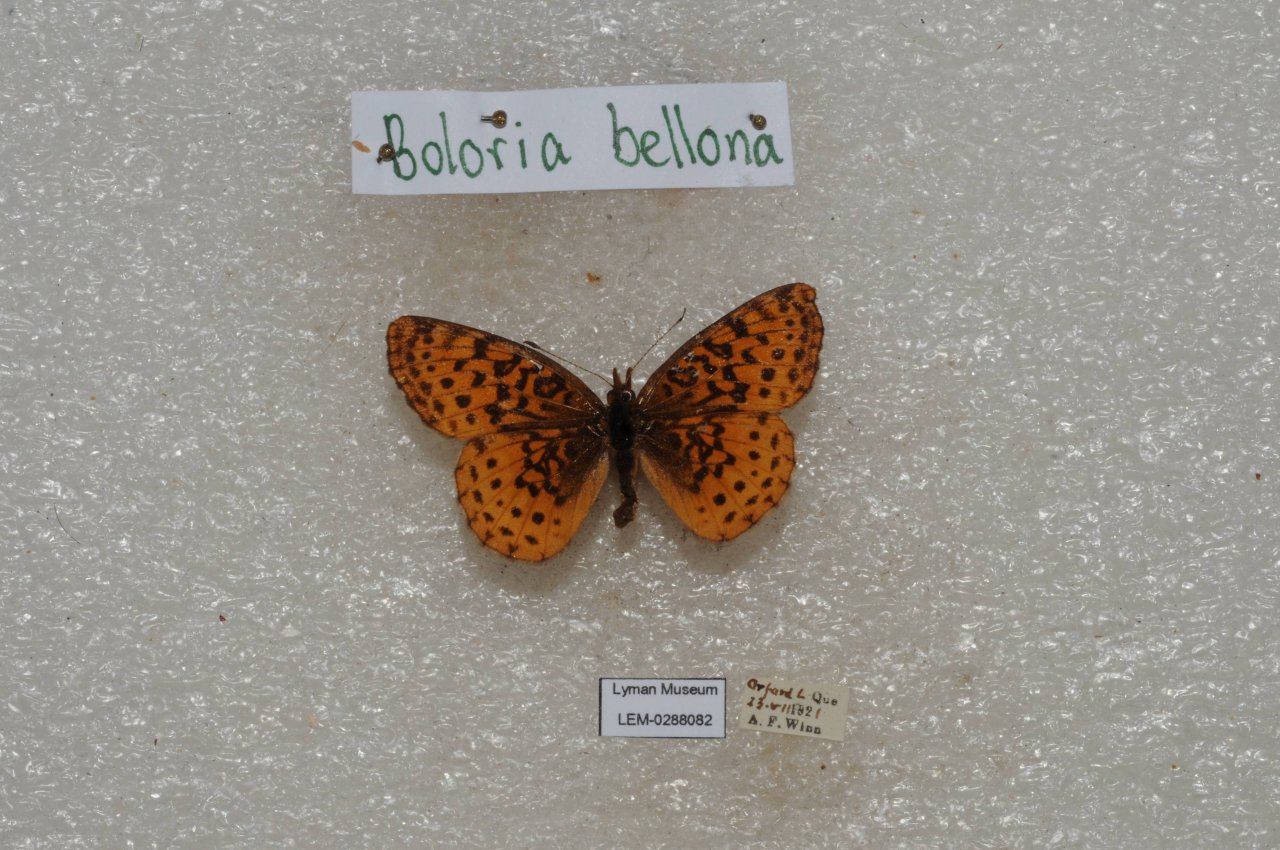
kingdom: Animalia
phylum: Arthropoda
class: Insecta
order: Lepidoptera
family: Nymphalidae
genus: Clossiana
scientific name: Clossiana toddi
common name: Meadow Fritillary
